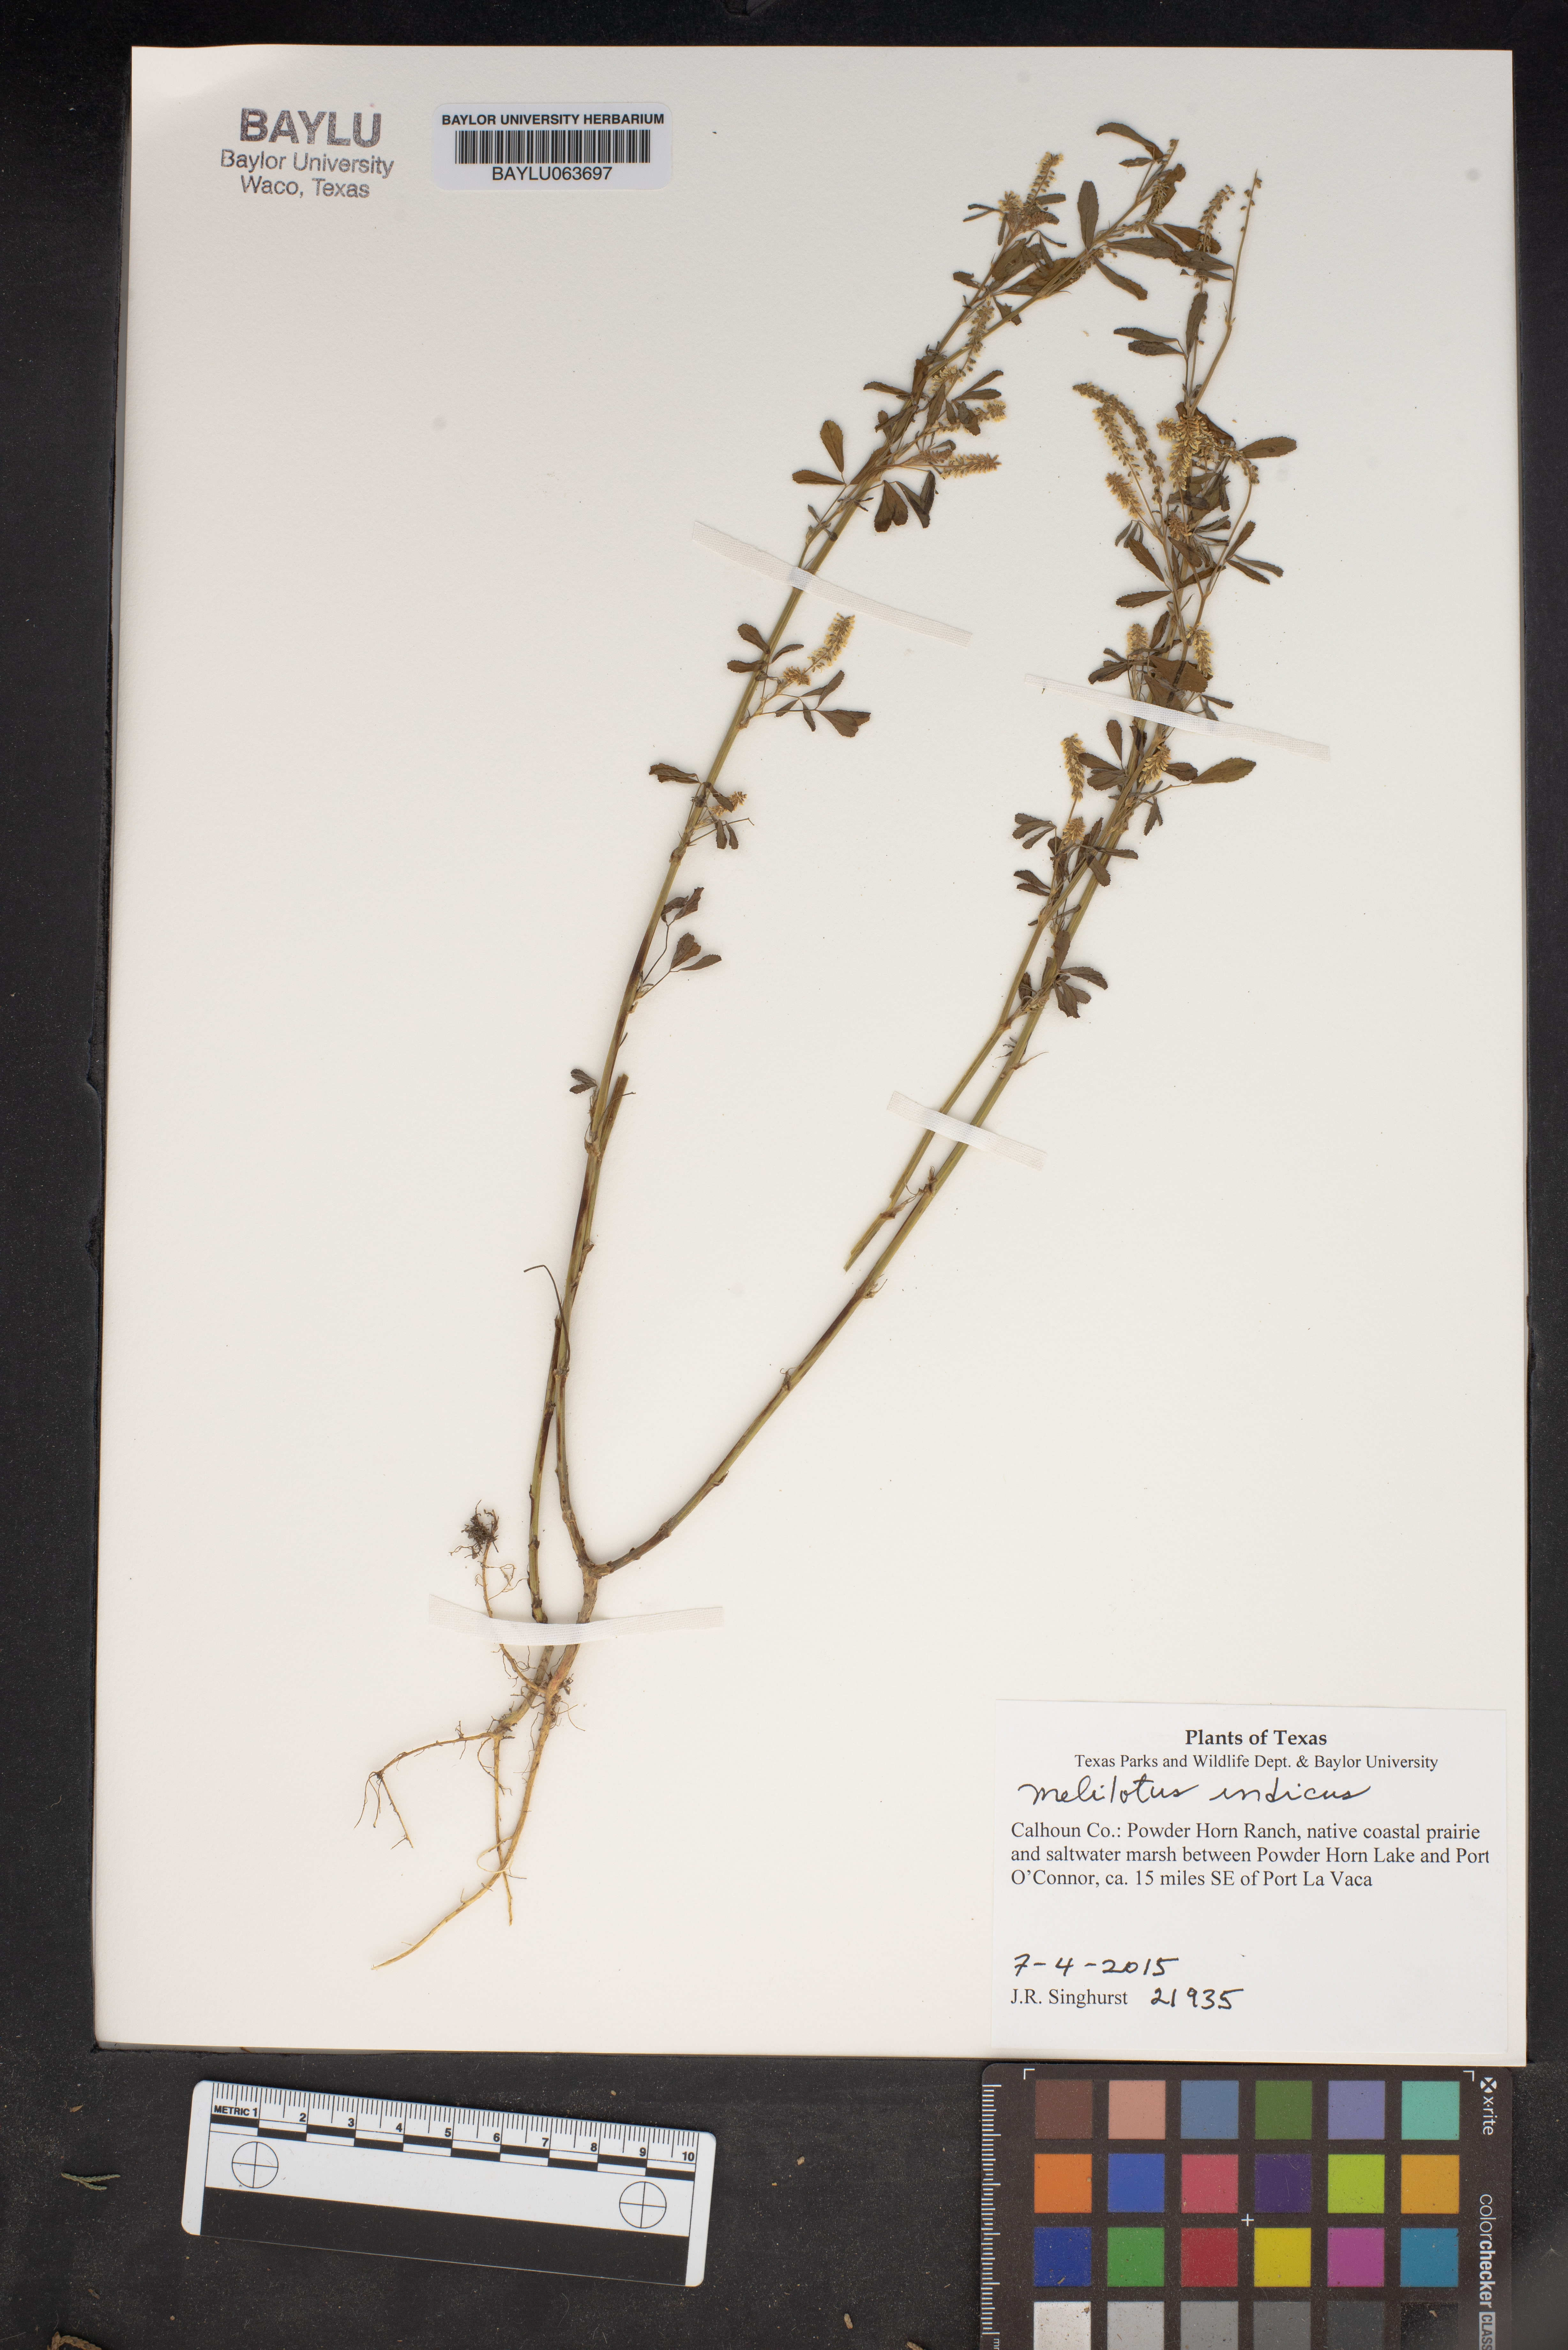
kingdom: Plantae
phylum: Tracheophyta
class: Magnoliopsida
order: Fabales
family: Fabaceae
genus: Melilotus
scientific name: Melilotus indicus
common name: Small melilot
